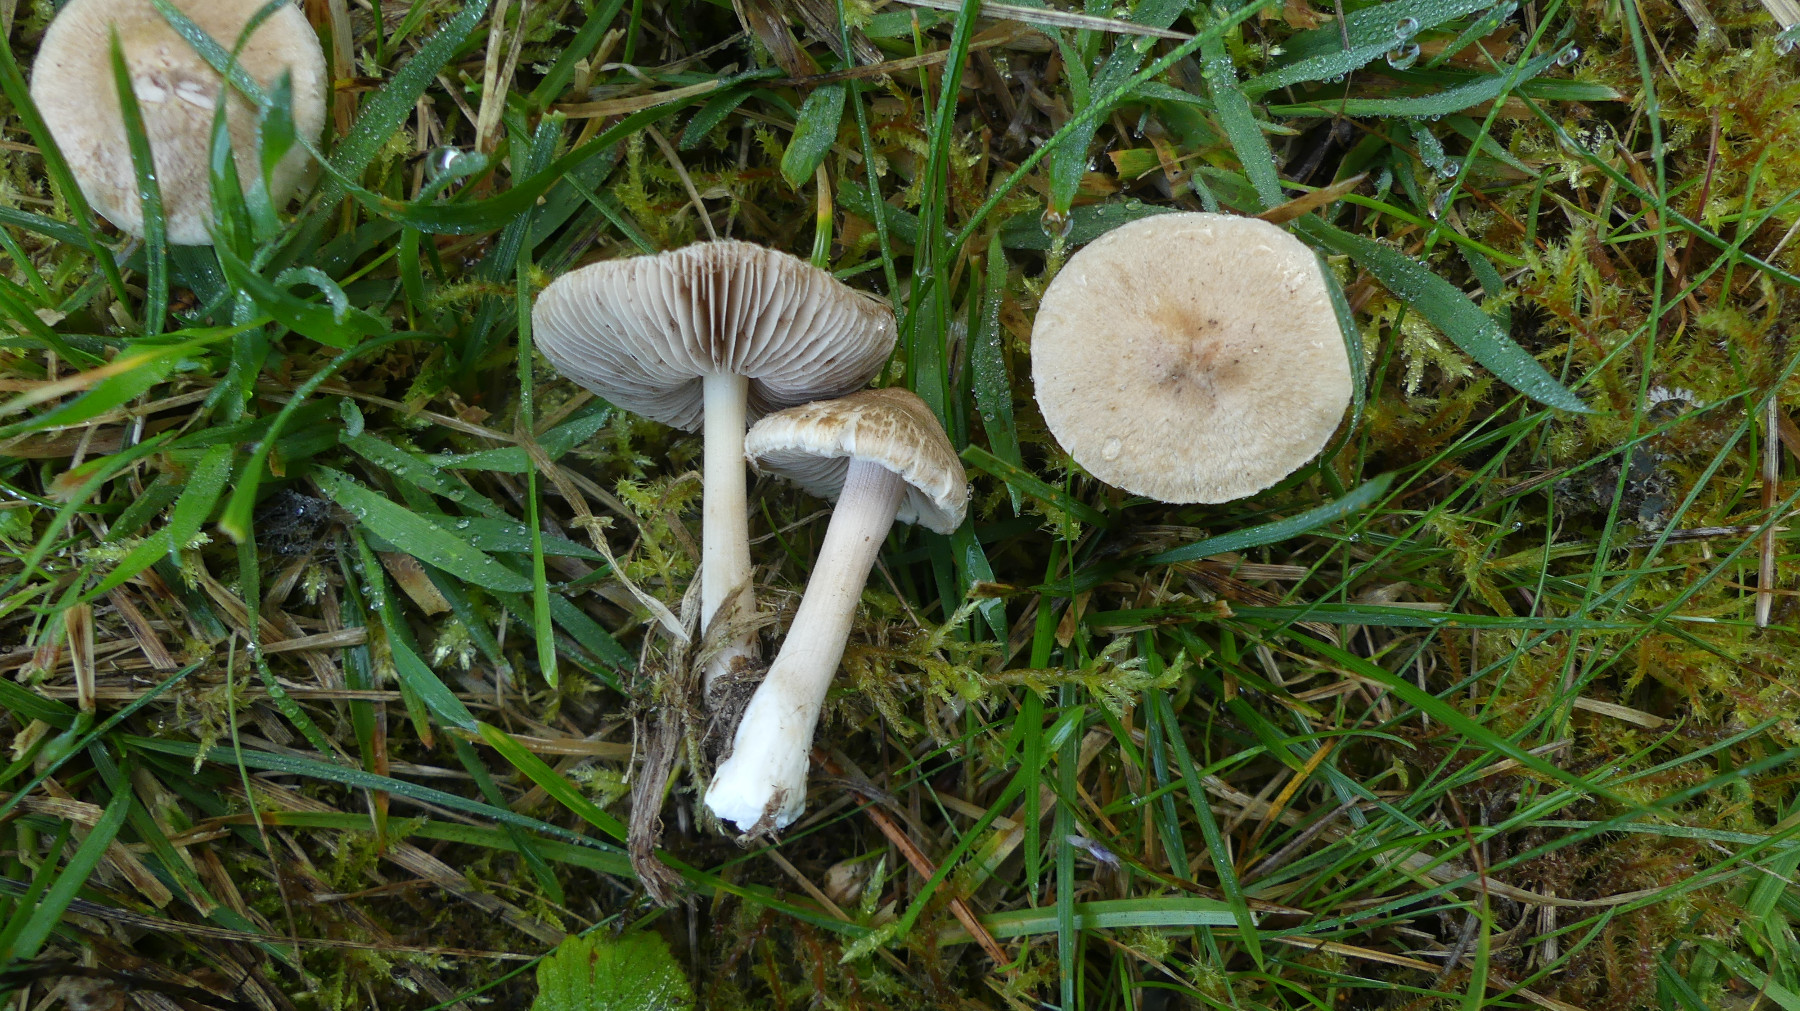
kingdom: Fungi
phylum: Basidiomycota
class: Agaricomycetes
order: Agaricales
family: Inocybaceae
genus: Inocybe
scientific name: Inocybe sindonia
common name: bleg trævlhat
